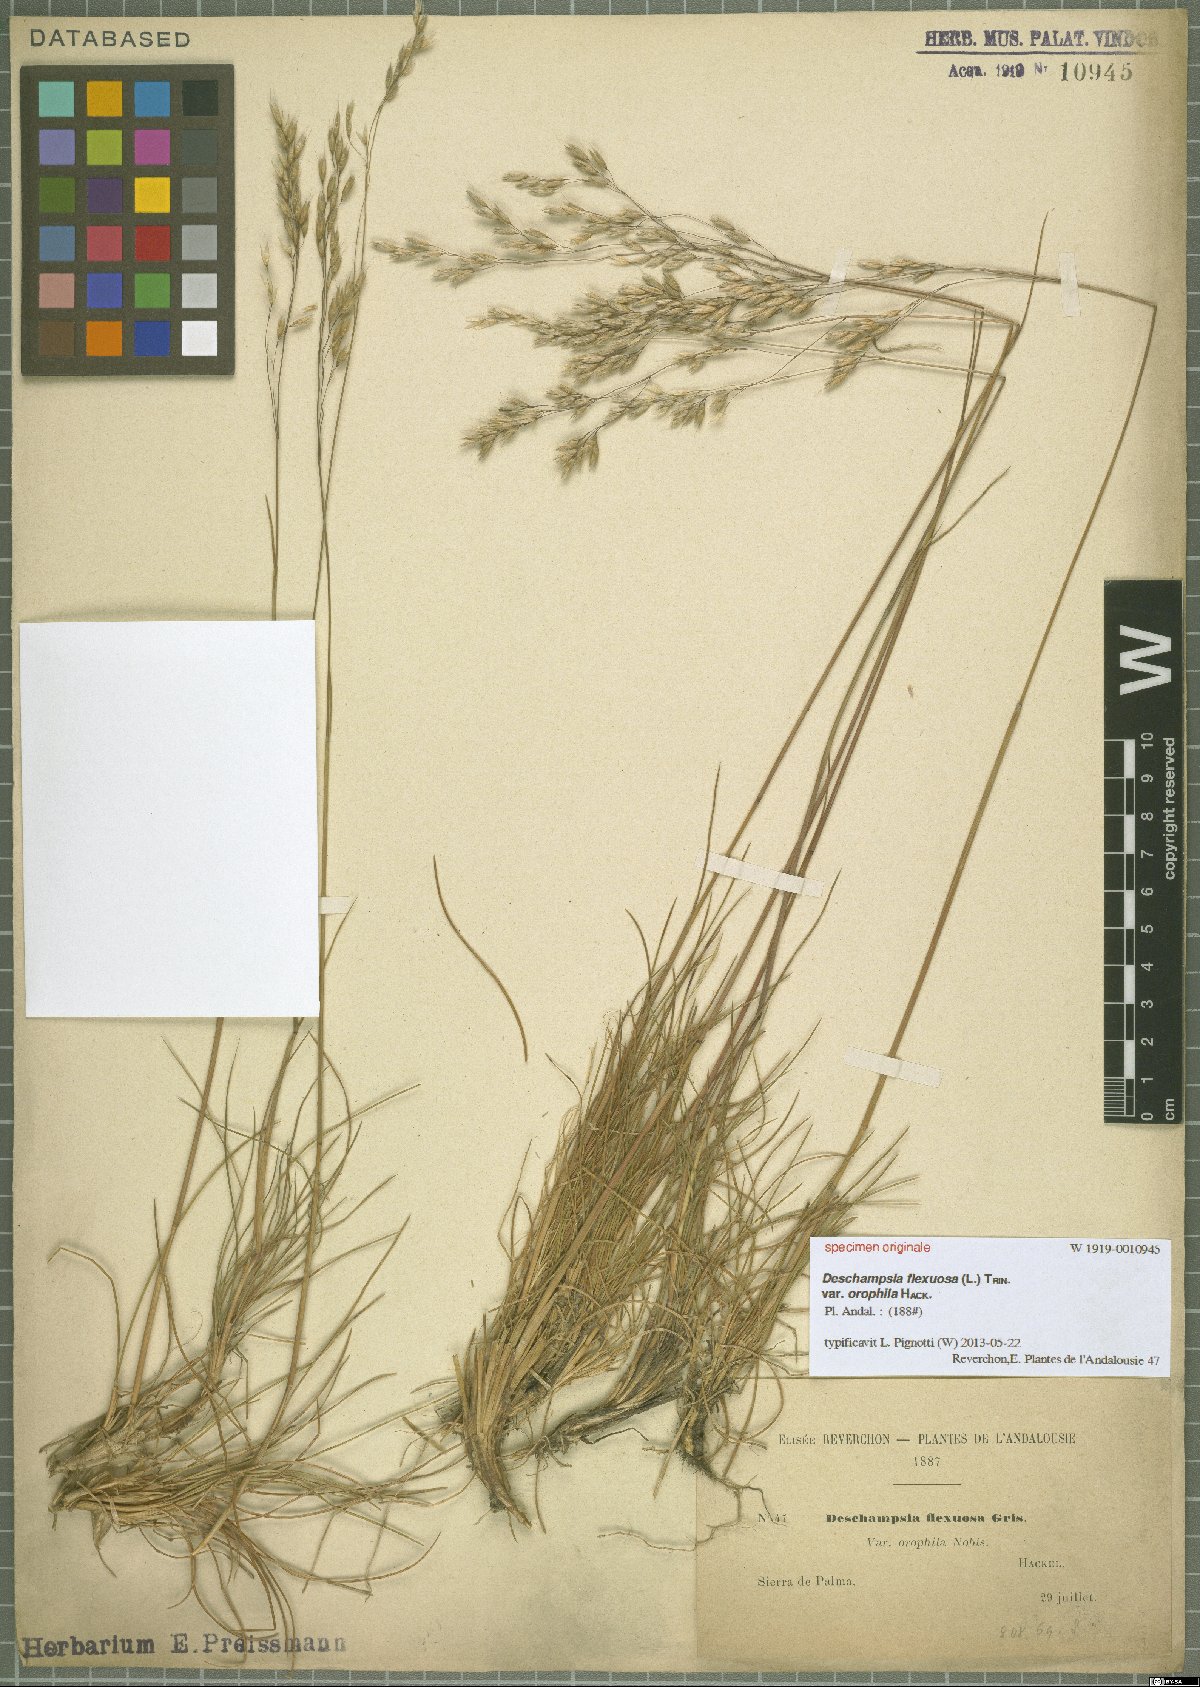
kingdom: Plantae
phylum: Tracheophyta
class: Liliopsida
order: Poales
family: Poaceae
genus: Avenella
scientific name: Avenella flexuosa
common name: Wavy hairgrass
